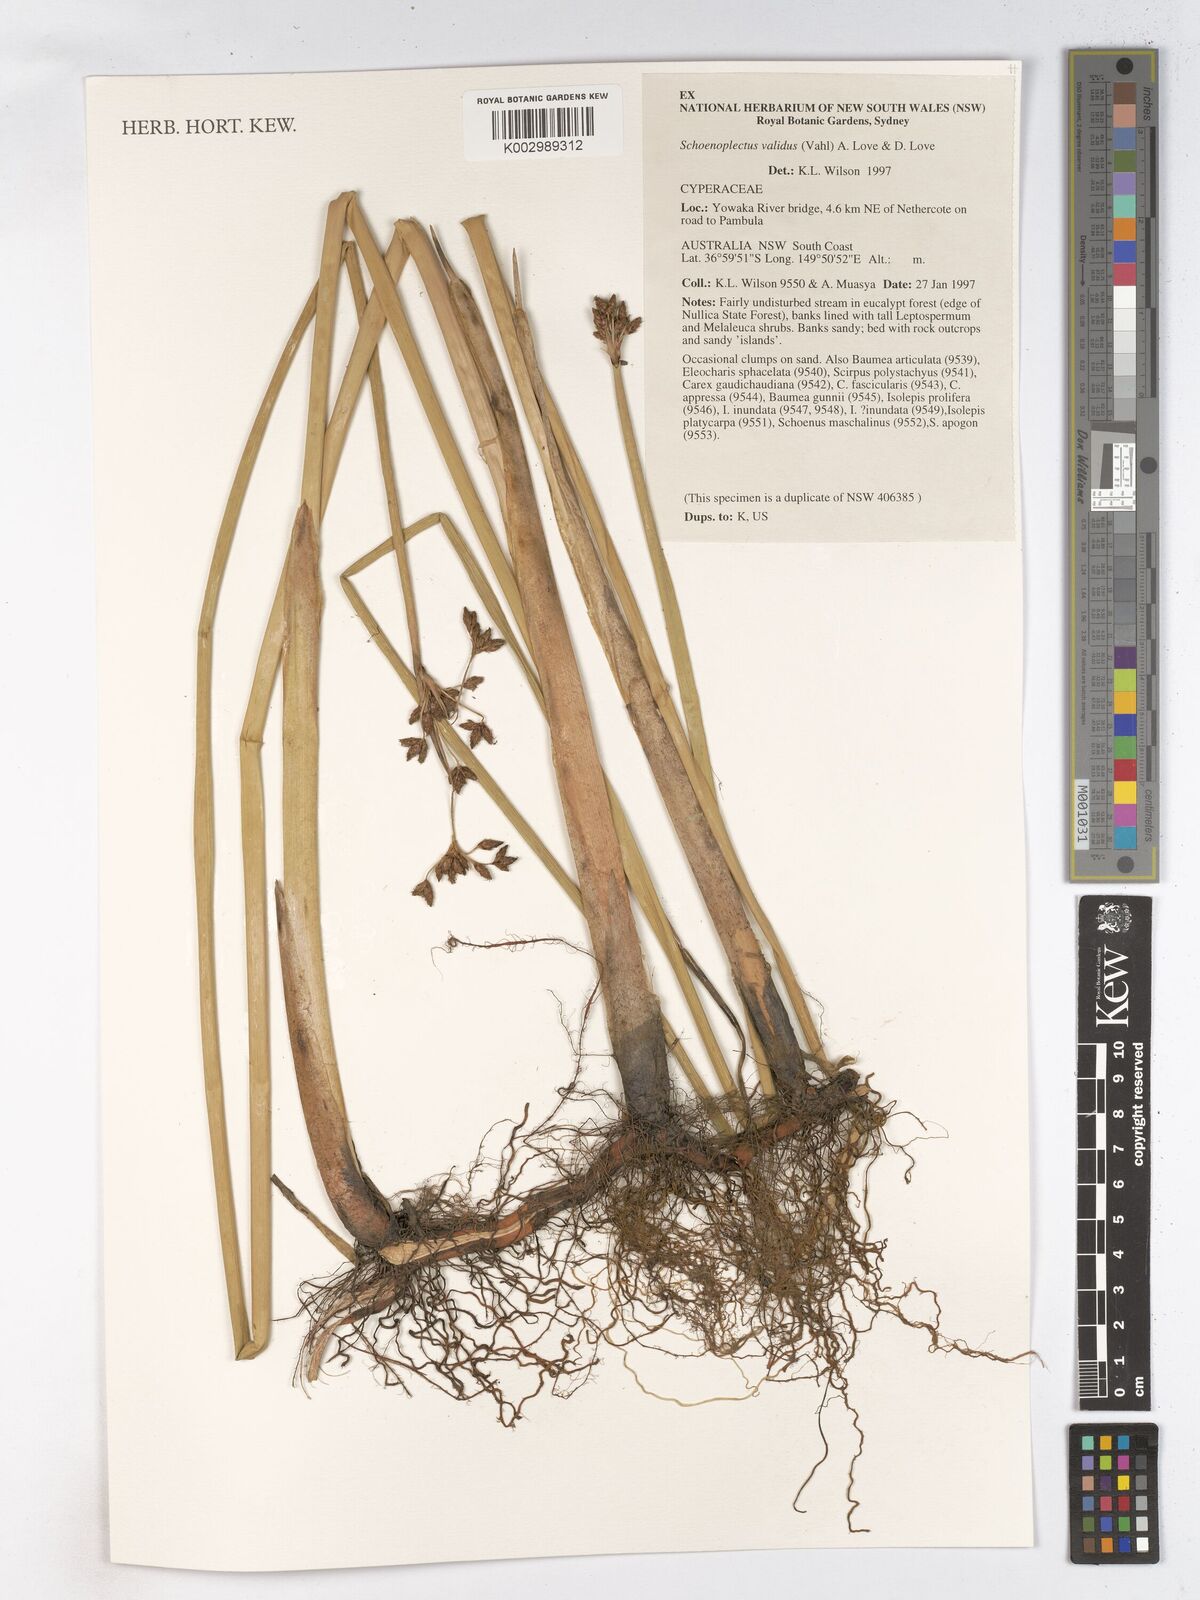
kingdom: Plantae
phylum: Tracheophyta
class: Liliopsida
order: Poales
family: Cyperaceae
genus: Schoenoplectus
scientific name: Schoenoplectus tabernaemontani
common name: Grey club-rush
